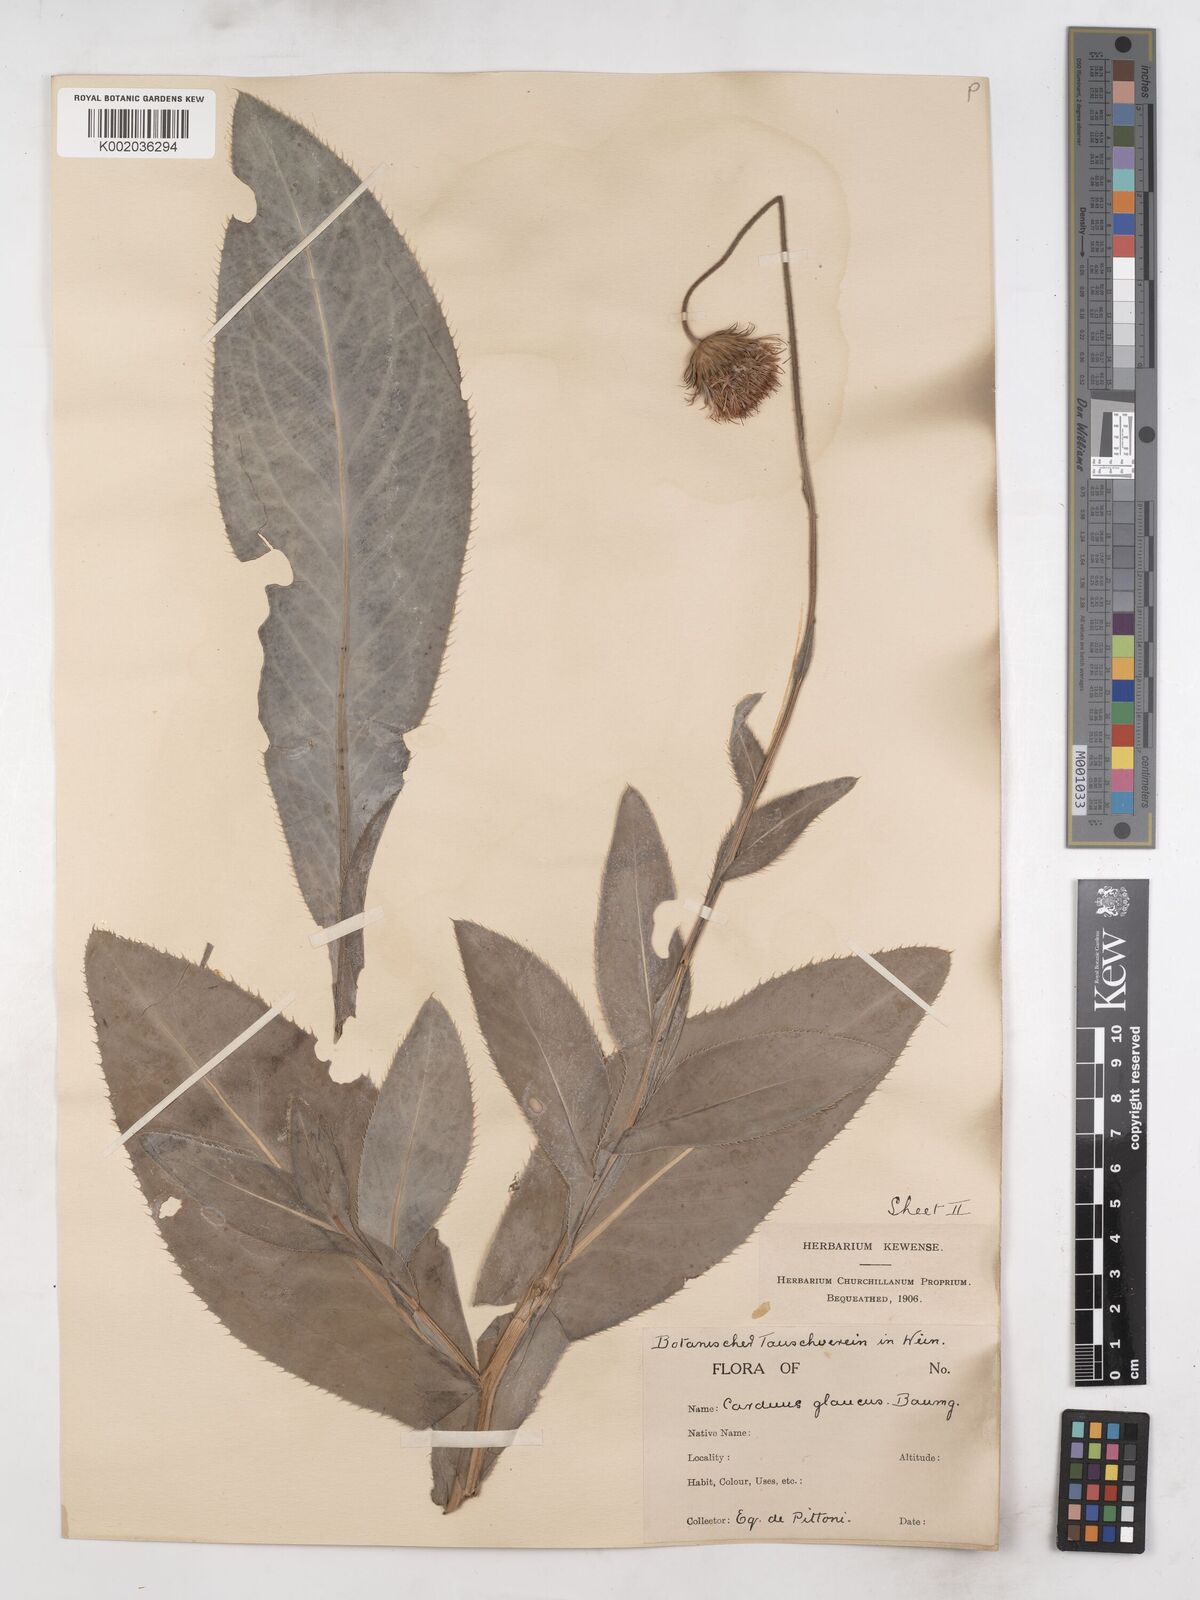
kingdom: Plantae
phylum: Tracheophyta
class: Magnoliopsida
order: Asterales
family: Asteraceae
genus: Carduus
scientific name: Carduus defloratus
